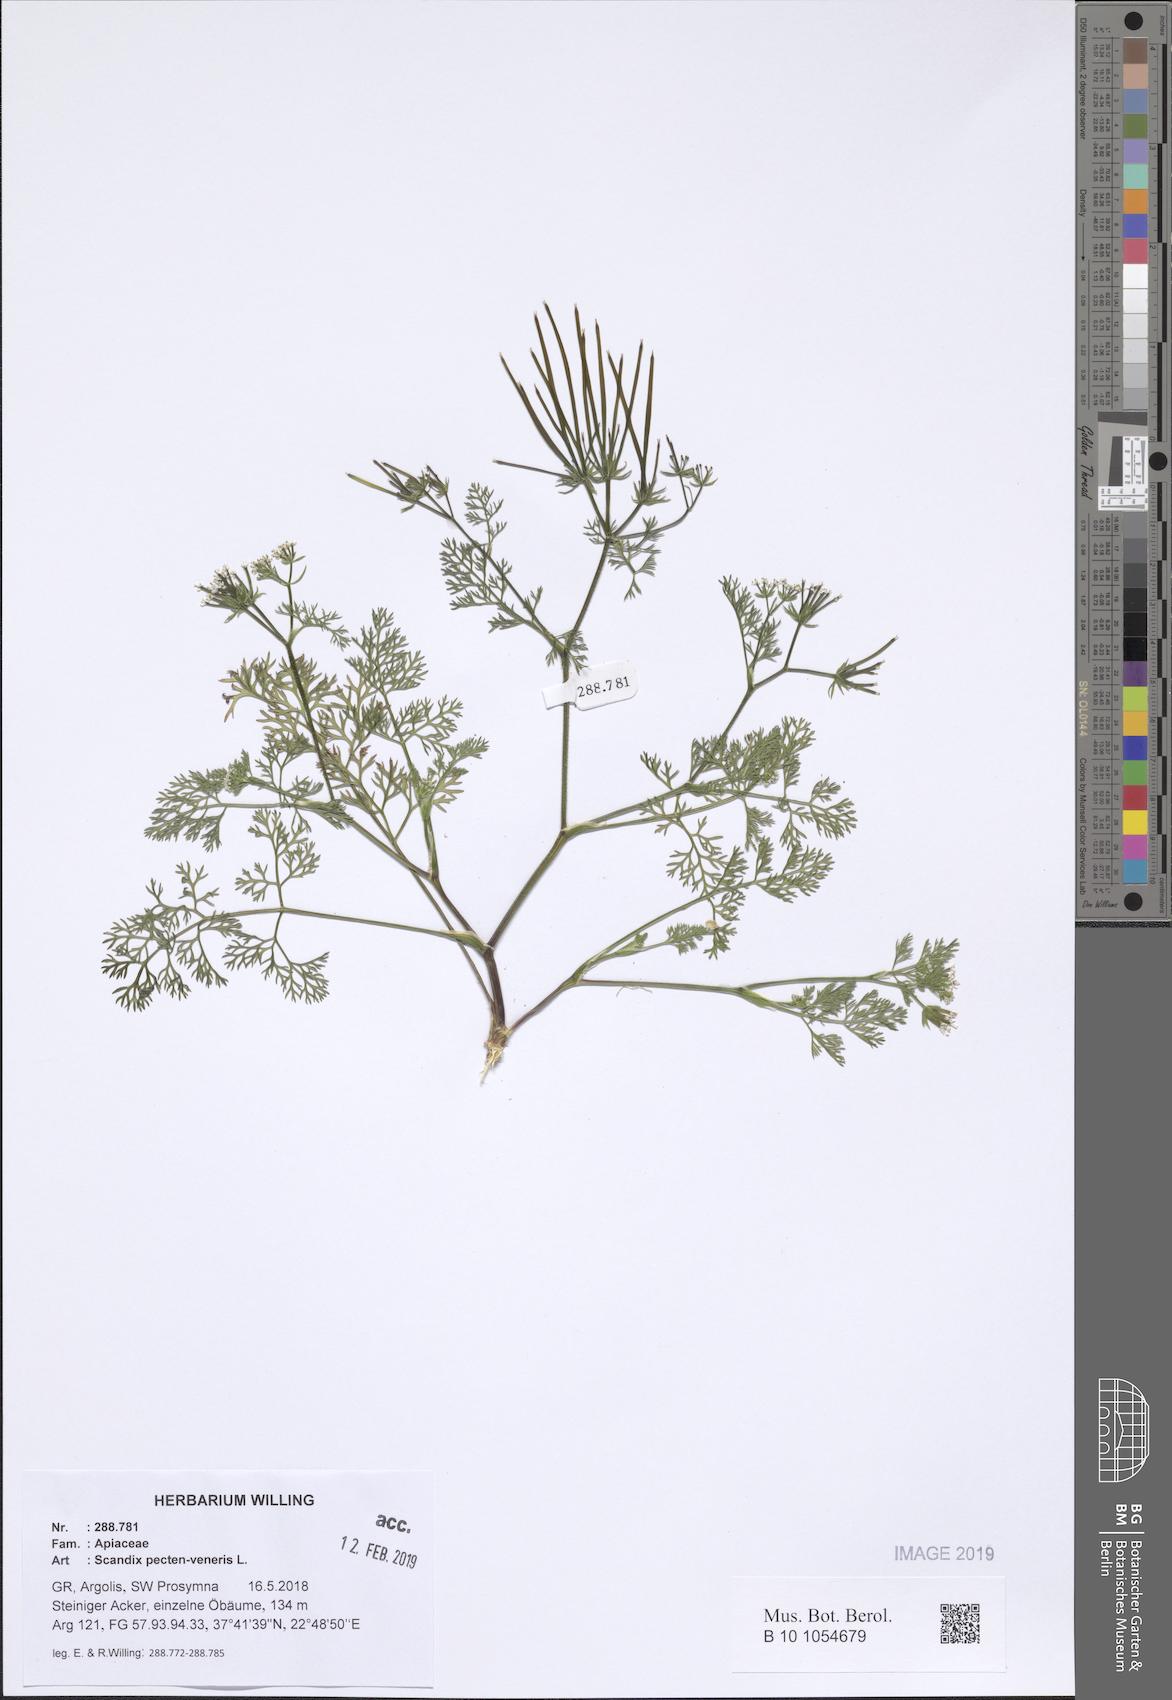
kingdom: Plantae
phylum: Tracheophyta
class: Magnoliopsida
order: Apiales
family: Apiaceae
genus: Scandix
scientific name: Scandix pecten-veneris
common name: Shepherd's-needle
